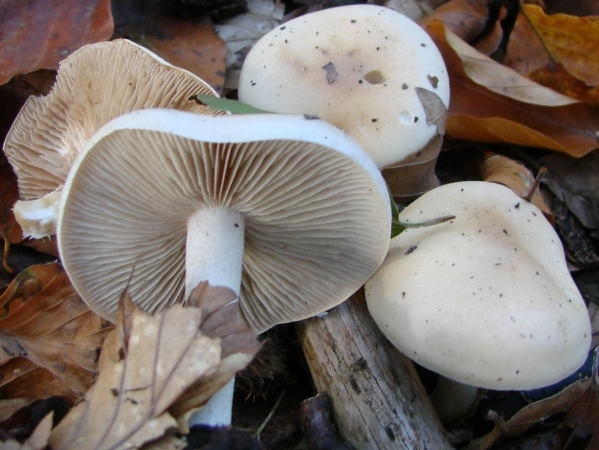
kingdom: Fungi
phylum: Basidiomycota
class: Agaricomycetes
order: Agaricales
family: Hymenogastraceae
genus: Hebeloma
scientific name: Hebeloma sinapizans
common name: ræddike-tåreblad
